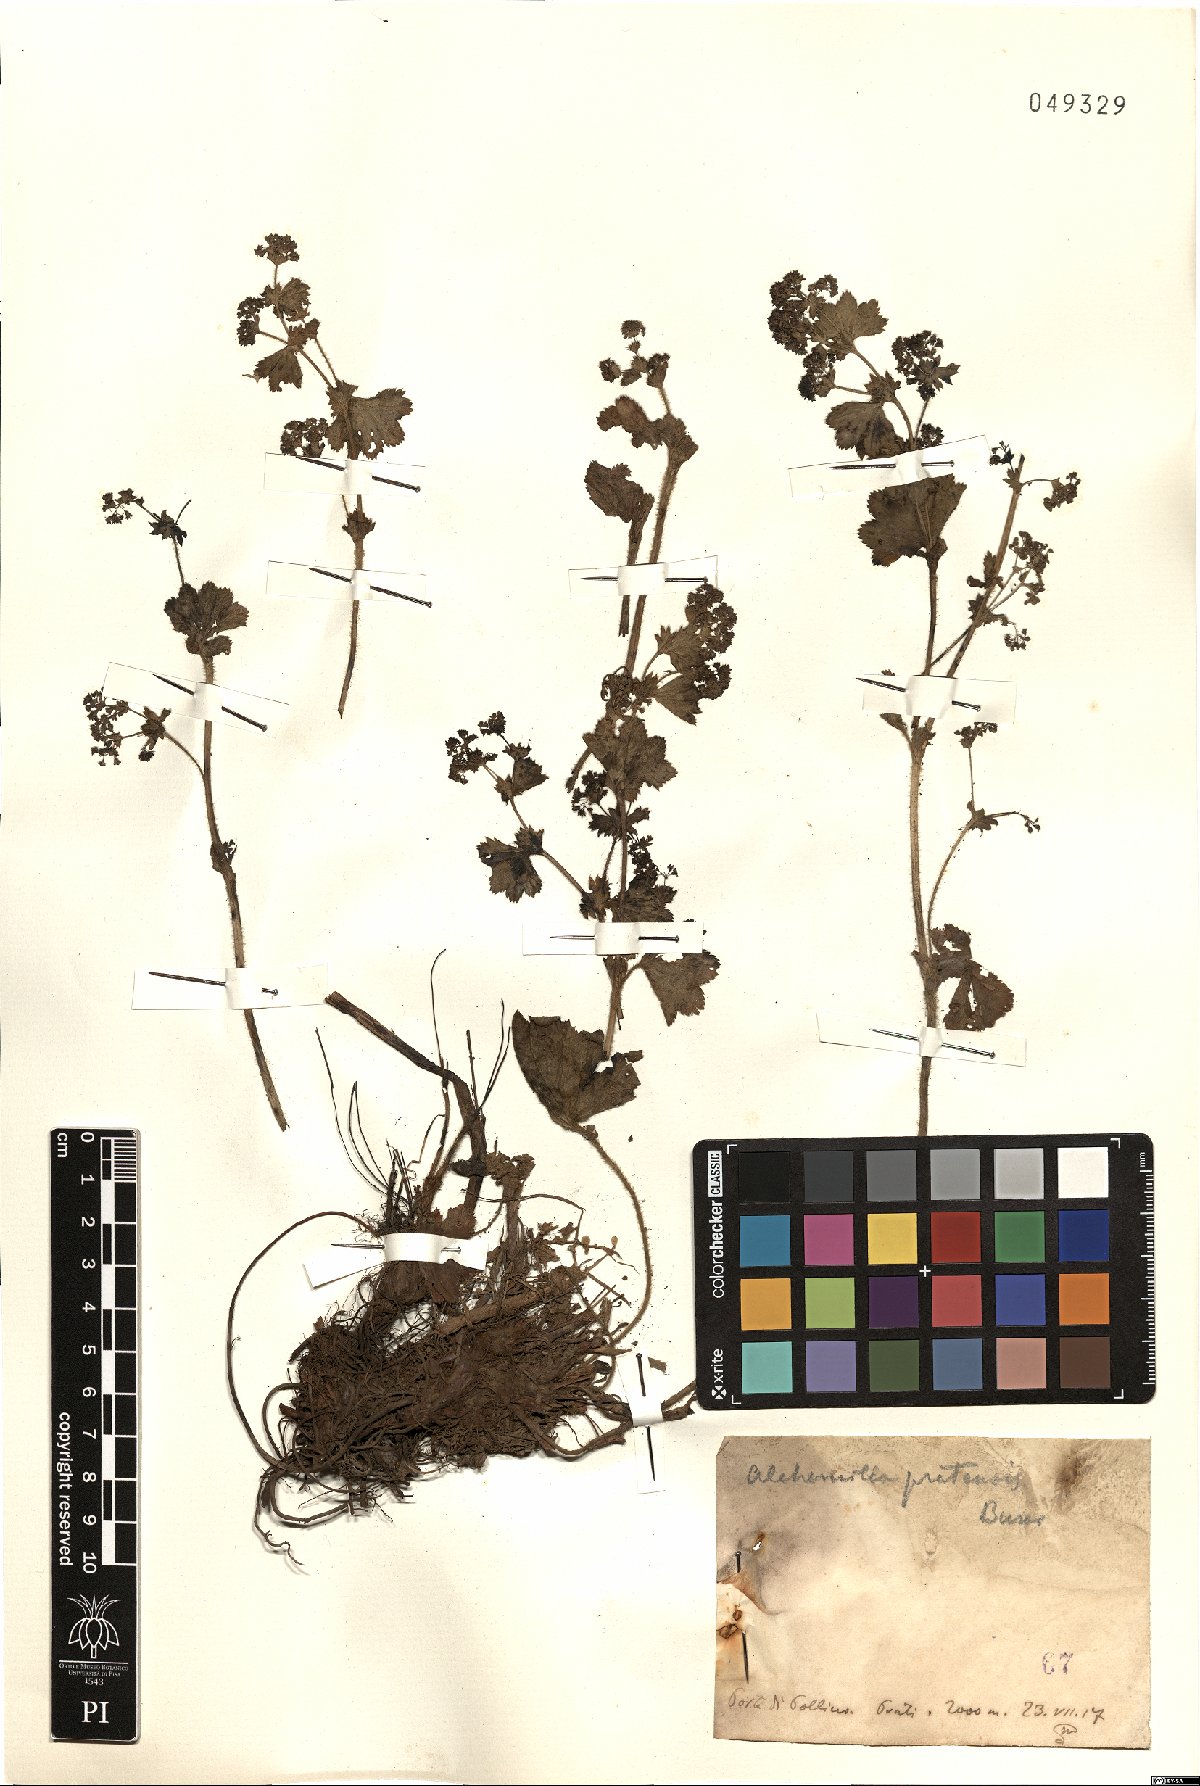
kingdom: Plantae
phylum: Tracheophyta
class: Magnoliopsida
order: Rosales
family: Rosaceae
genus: Alchemilla
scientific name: Alchemilla monticola
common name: Hairy lady's mantle
